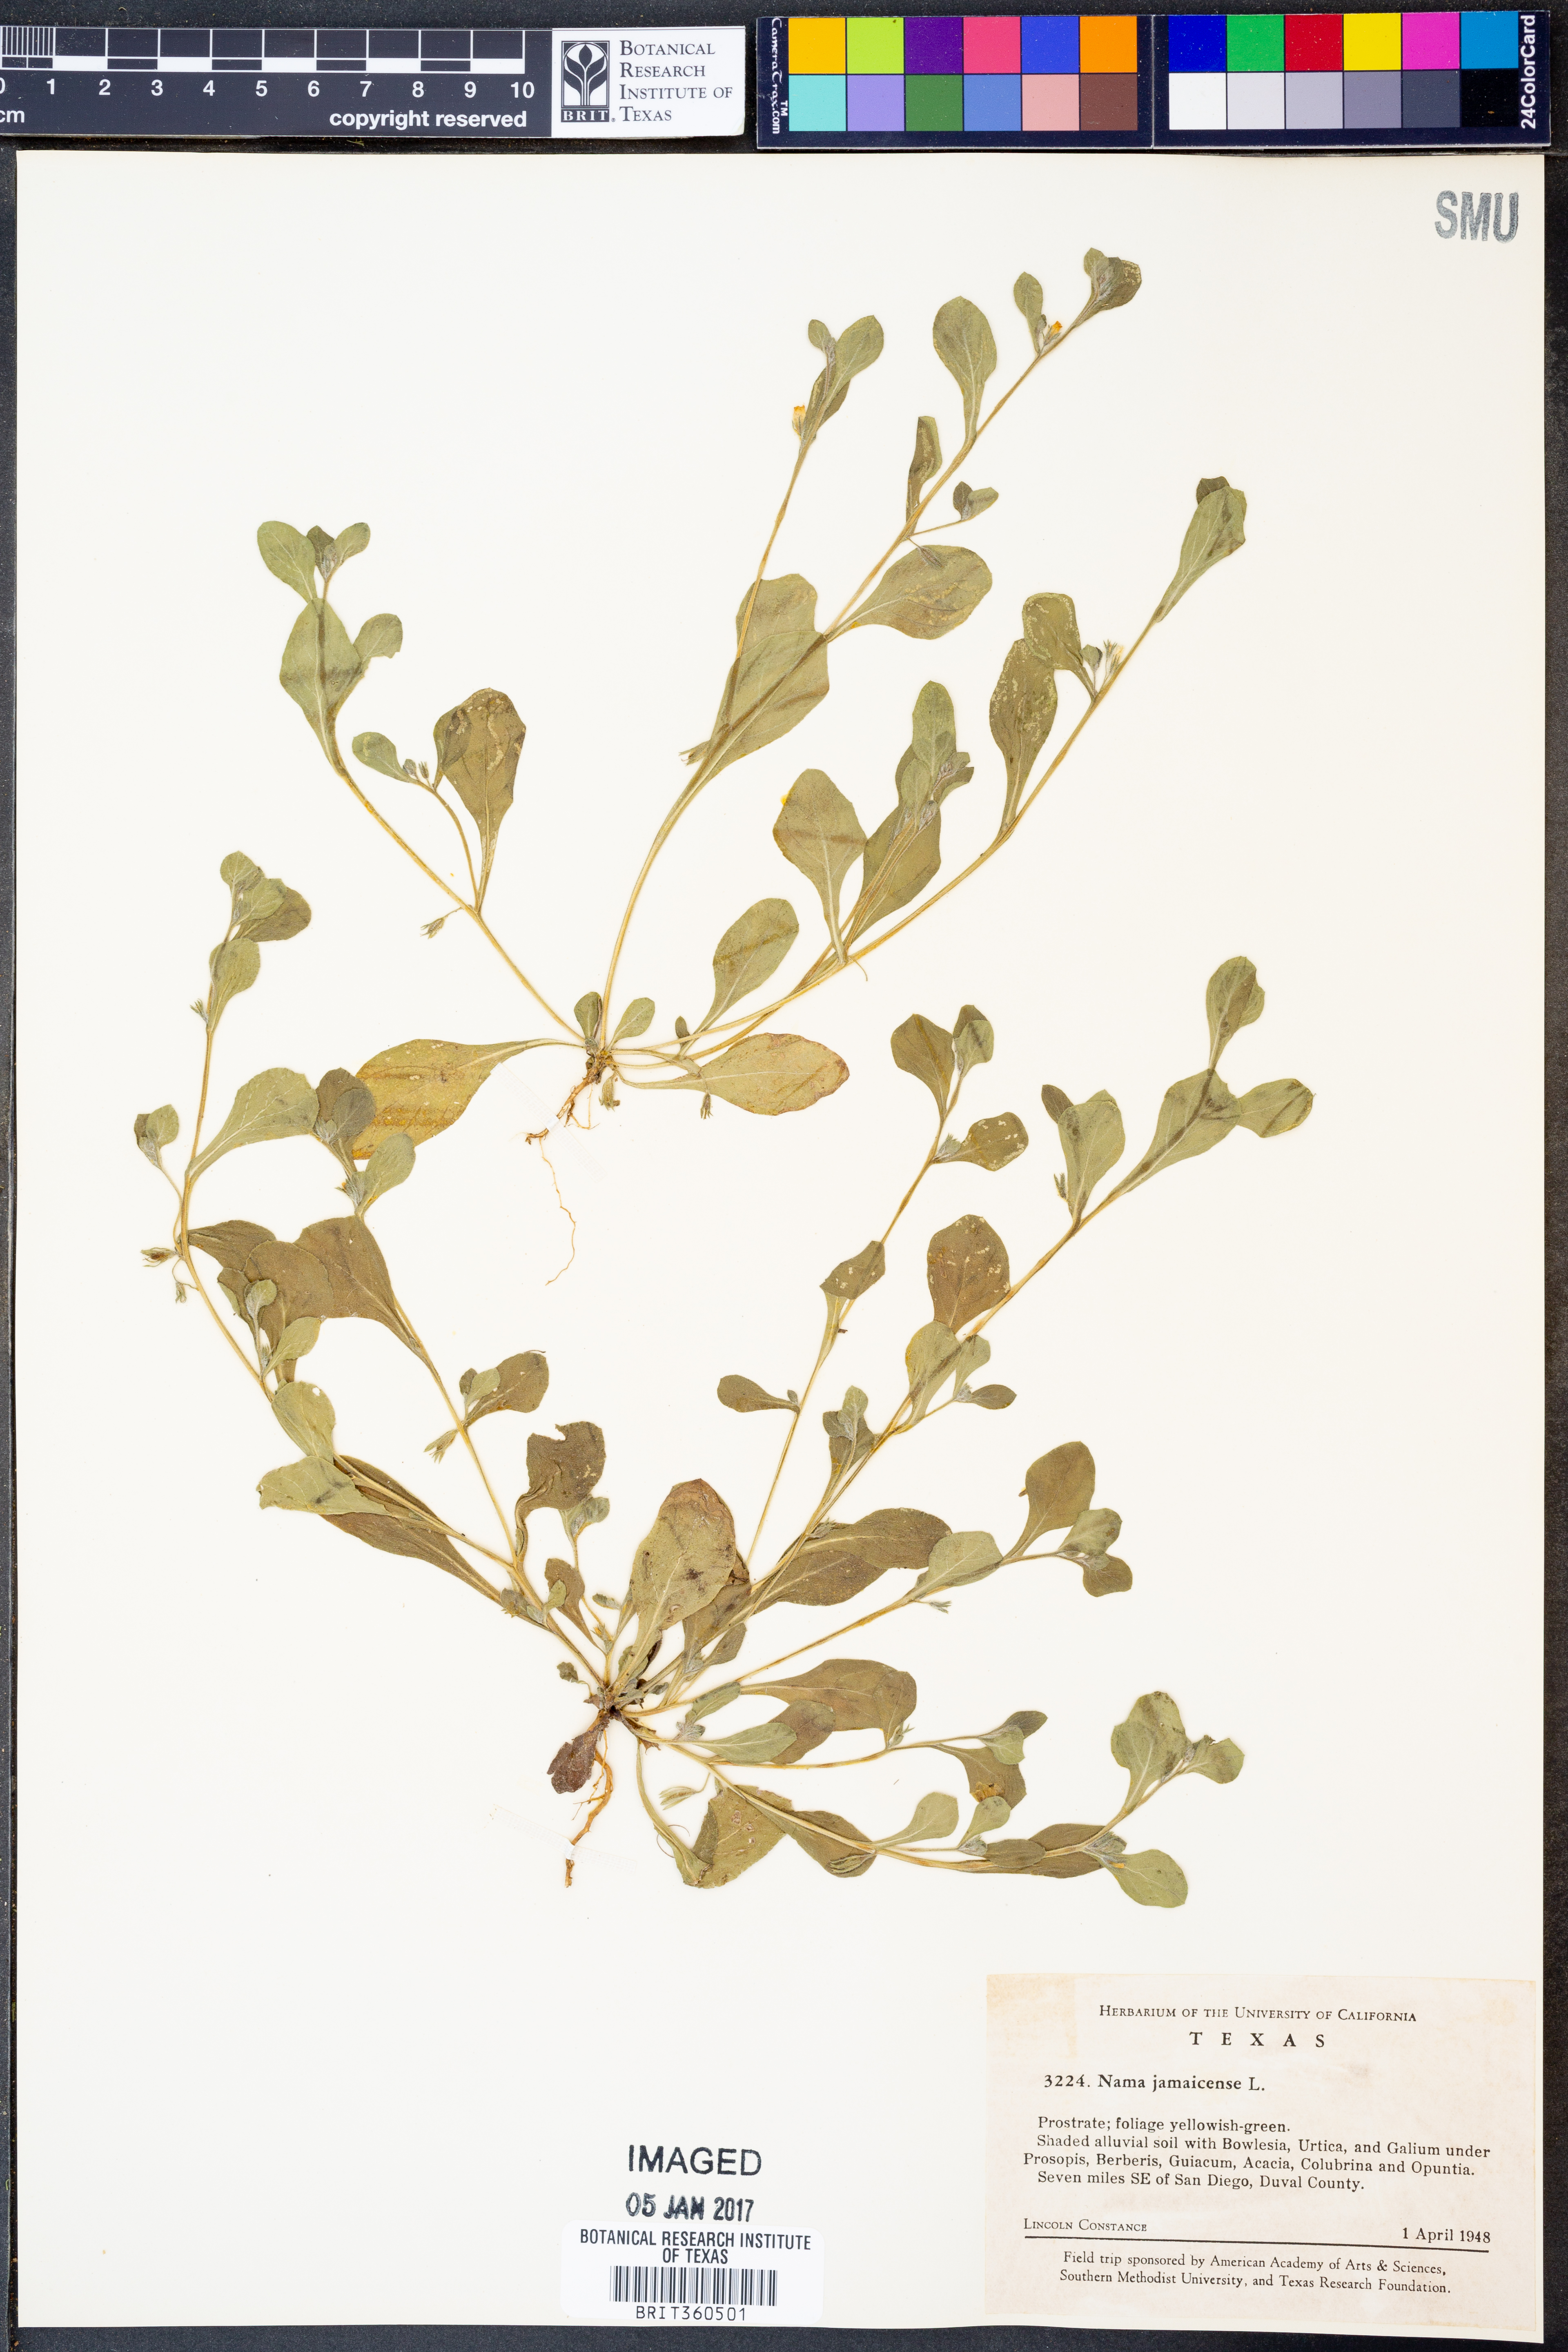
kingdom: Plantae
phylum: Tracheophyta
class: Magnoliopsida
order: Boraginales
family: Namaceae
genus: Nama
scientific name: Nama jamaicense
